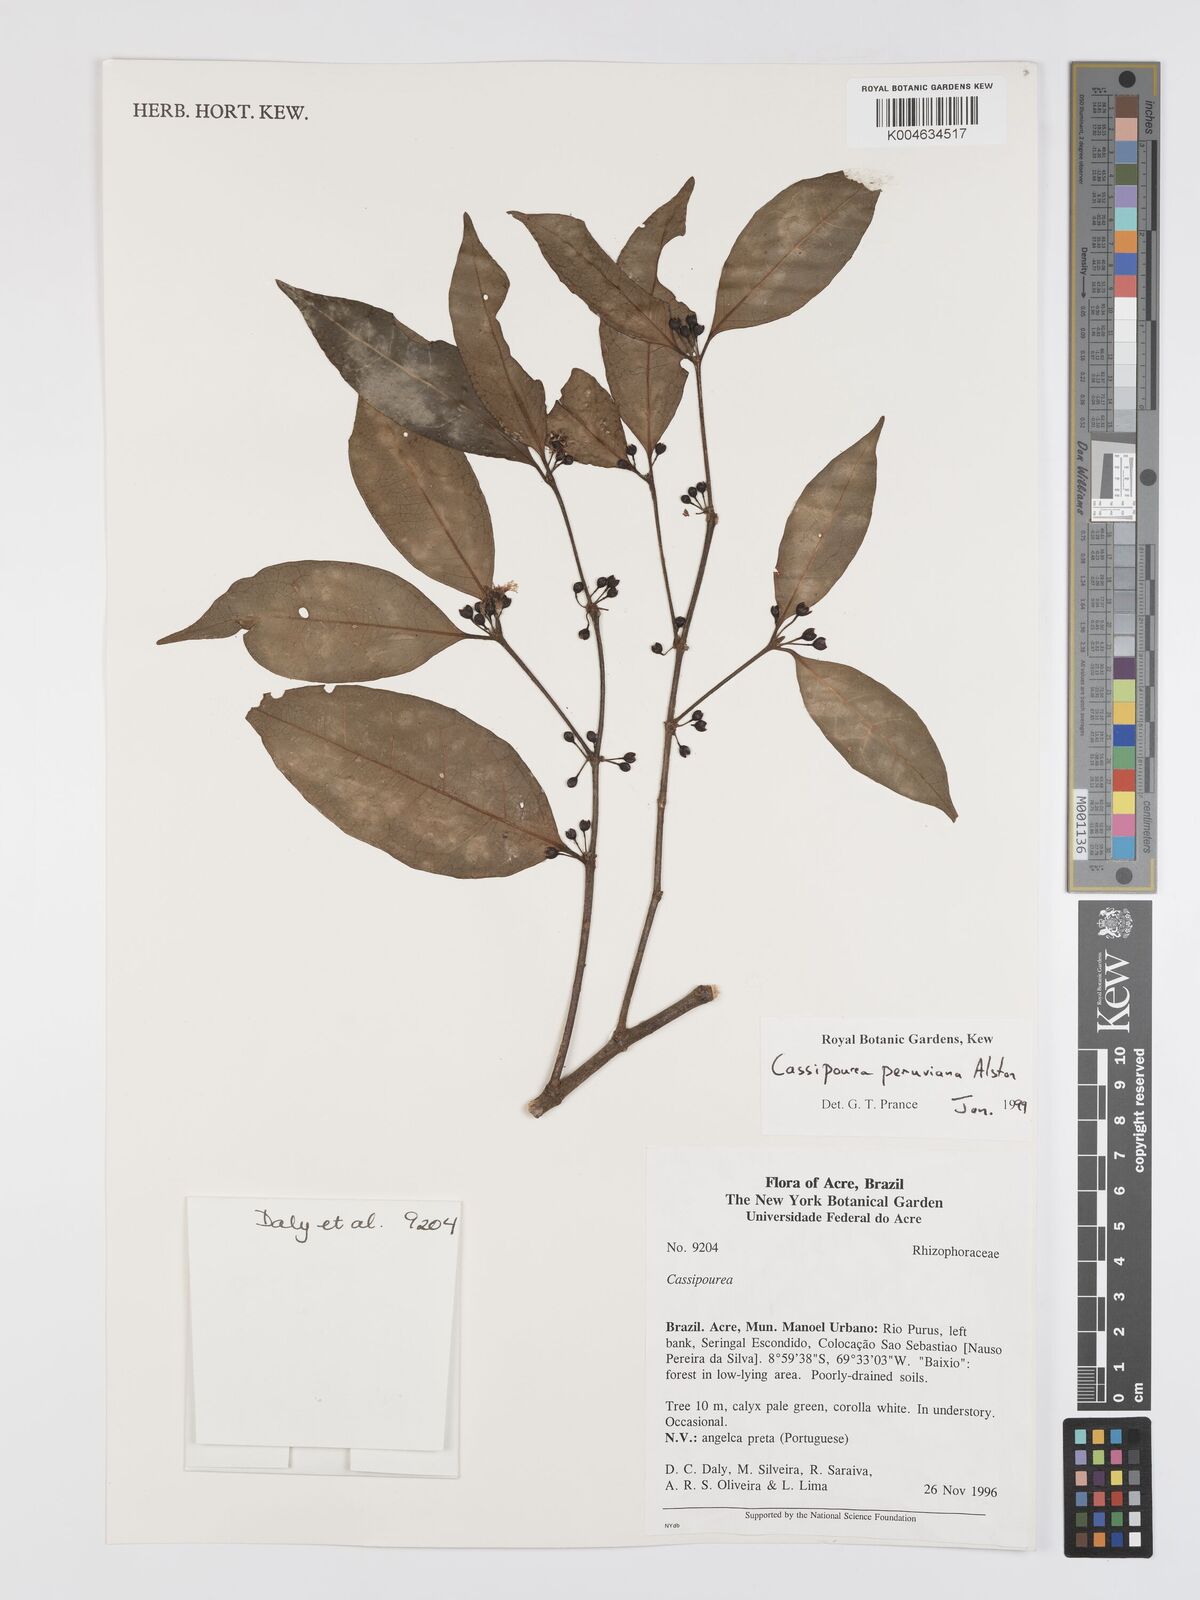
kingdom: Plantae
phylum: Tracheophyta
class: Magnoliopsida
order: Malpighiales
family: Rhizophoraceae
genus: Cassipourea
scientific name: Cassipourea peruviana
